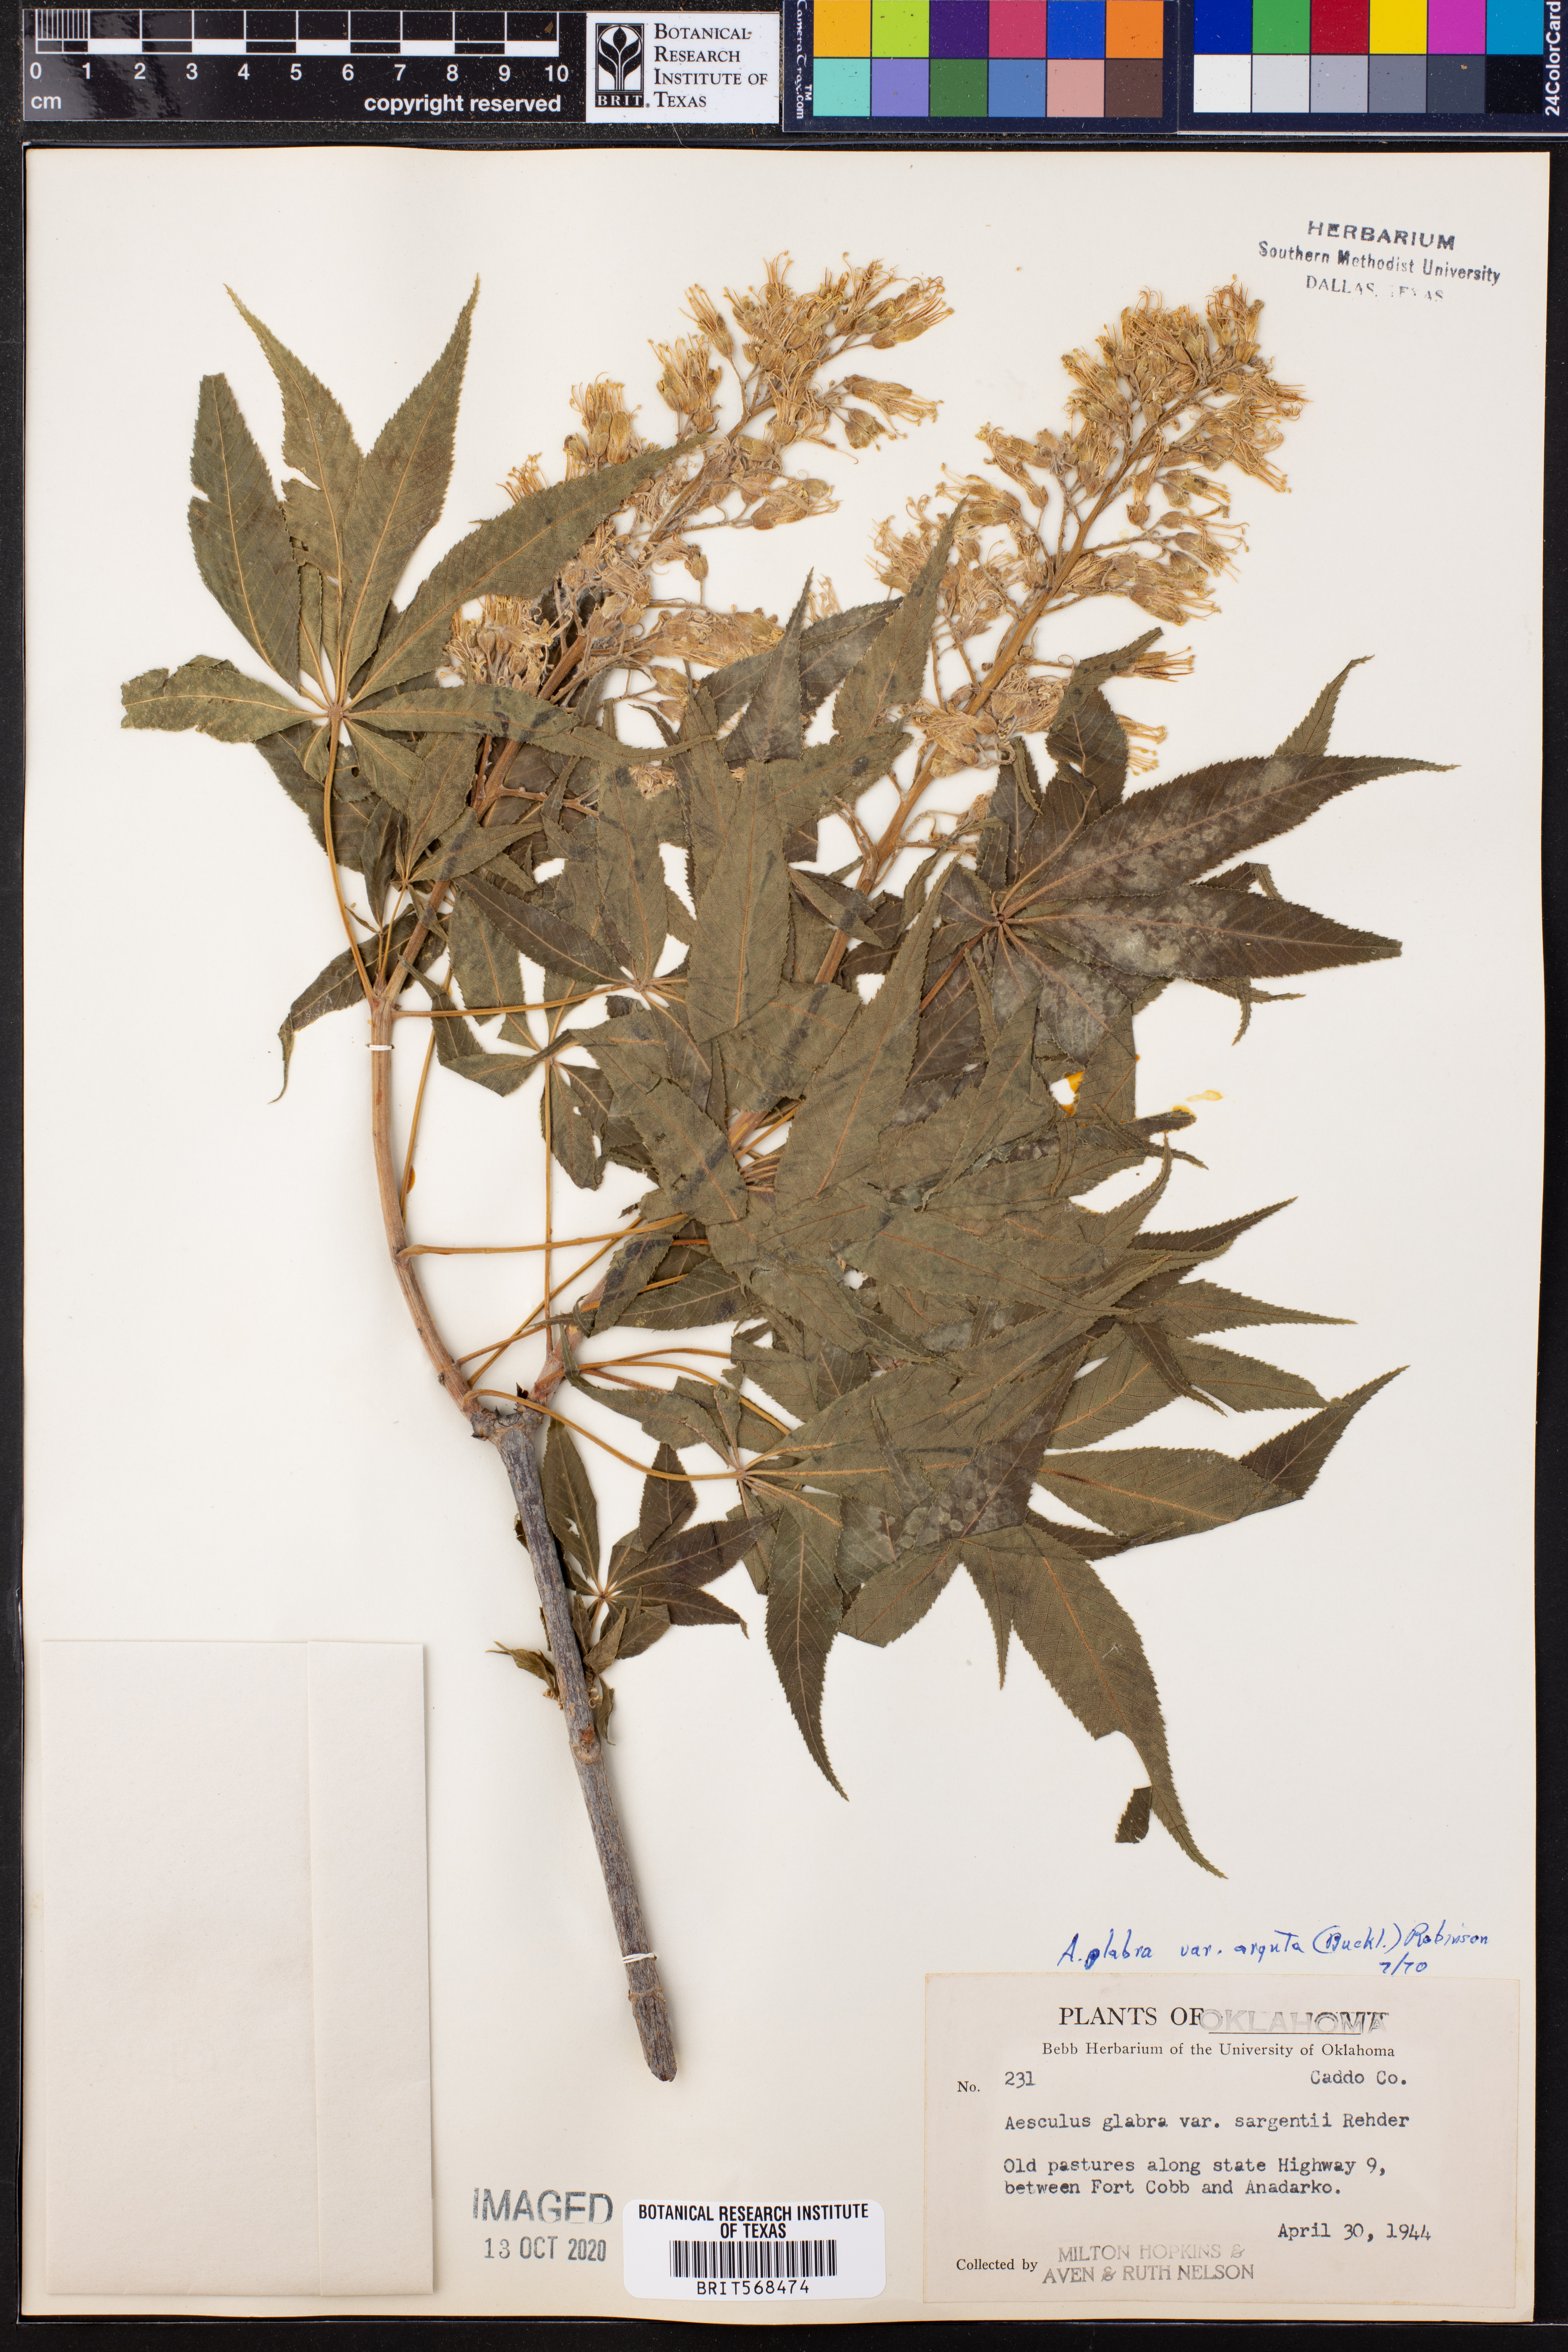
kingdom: Plantae
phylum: Tracheophyta
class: Magnoliopsida
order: Sapindales
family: Sapindaceae
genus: Aesculus
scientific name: Aesculus glabra
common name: Ohio buckeye
